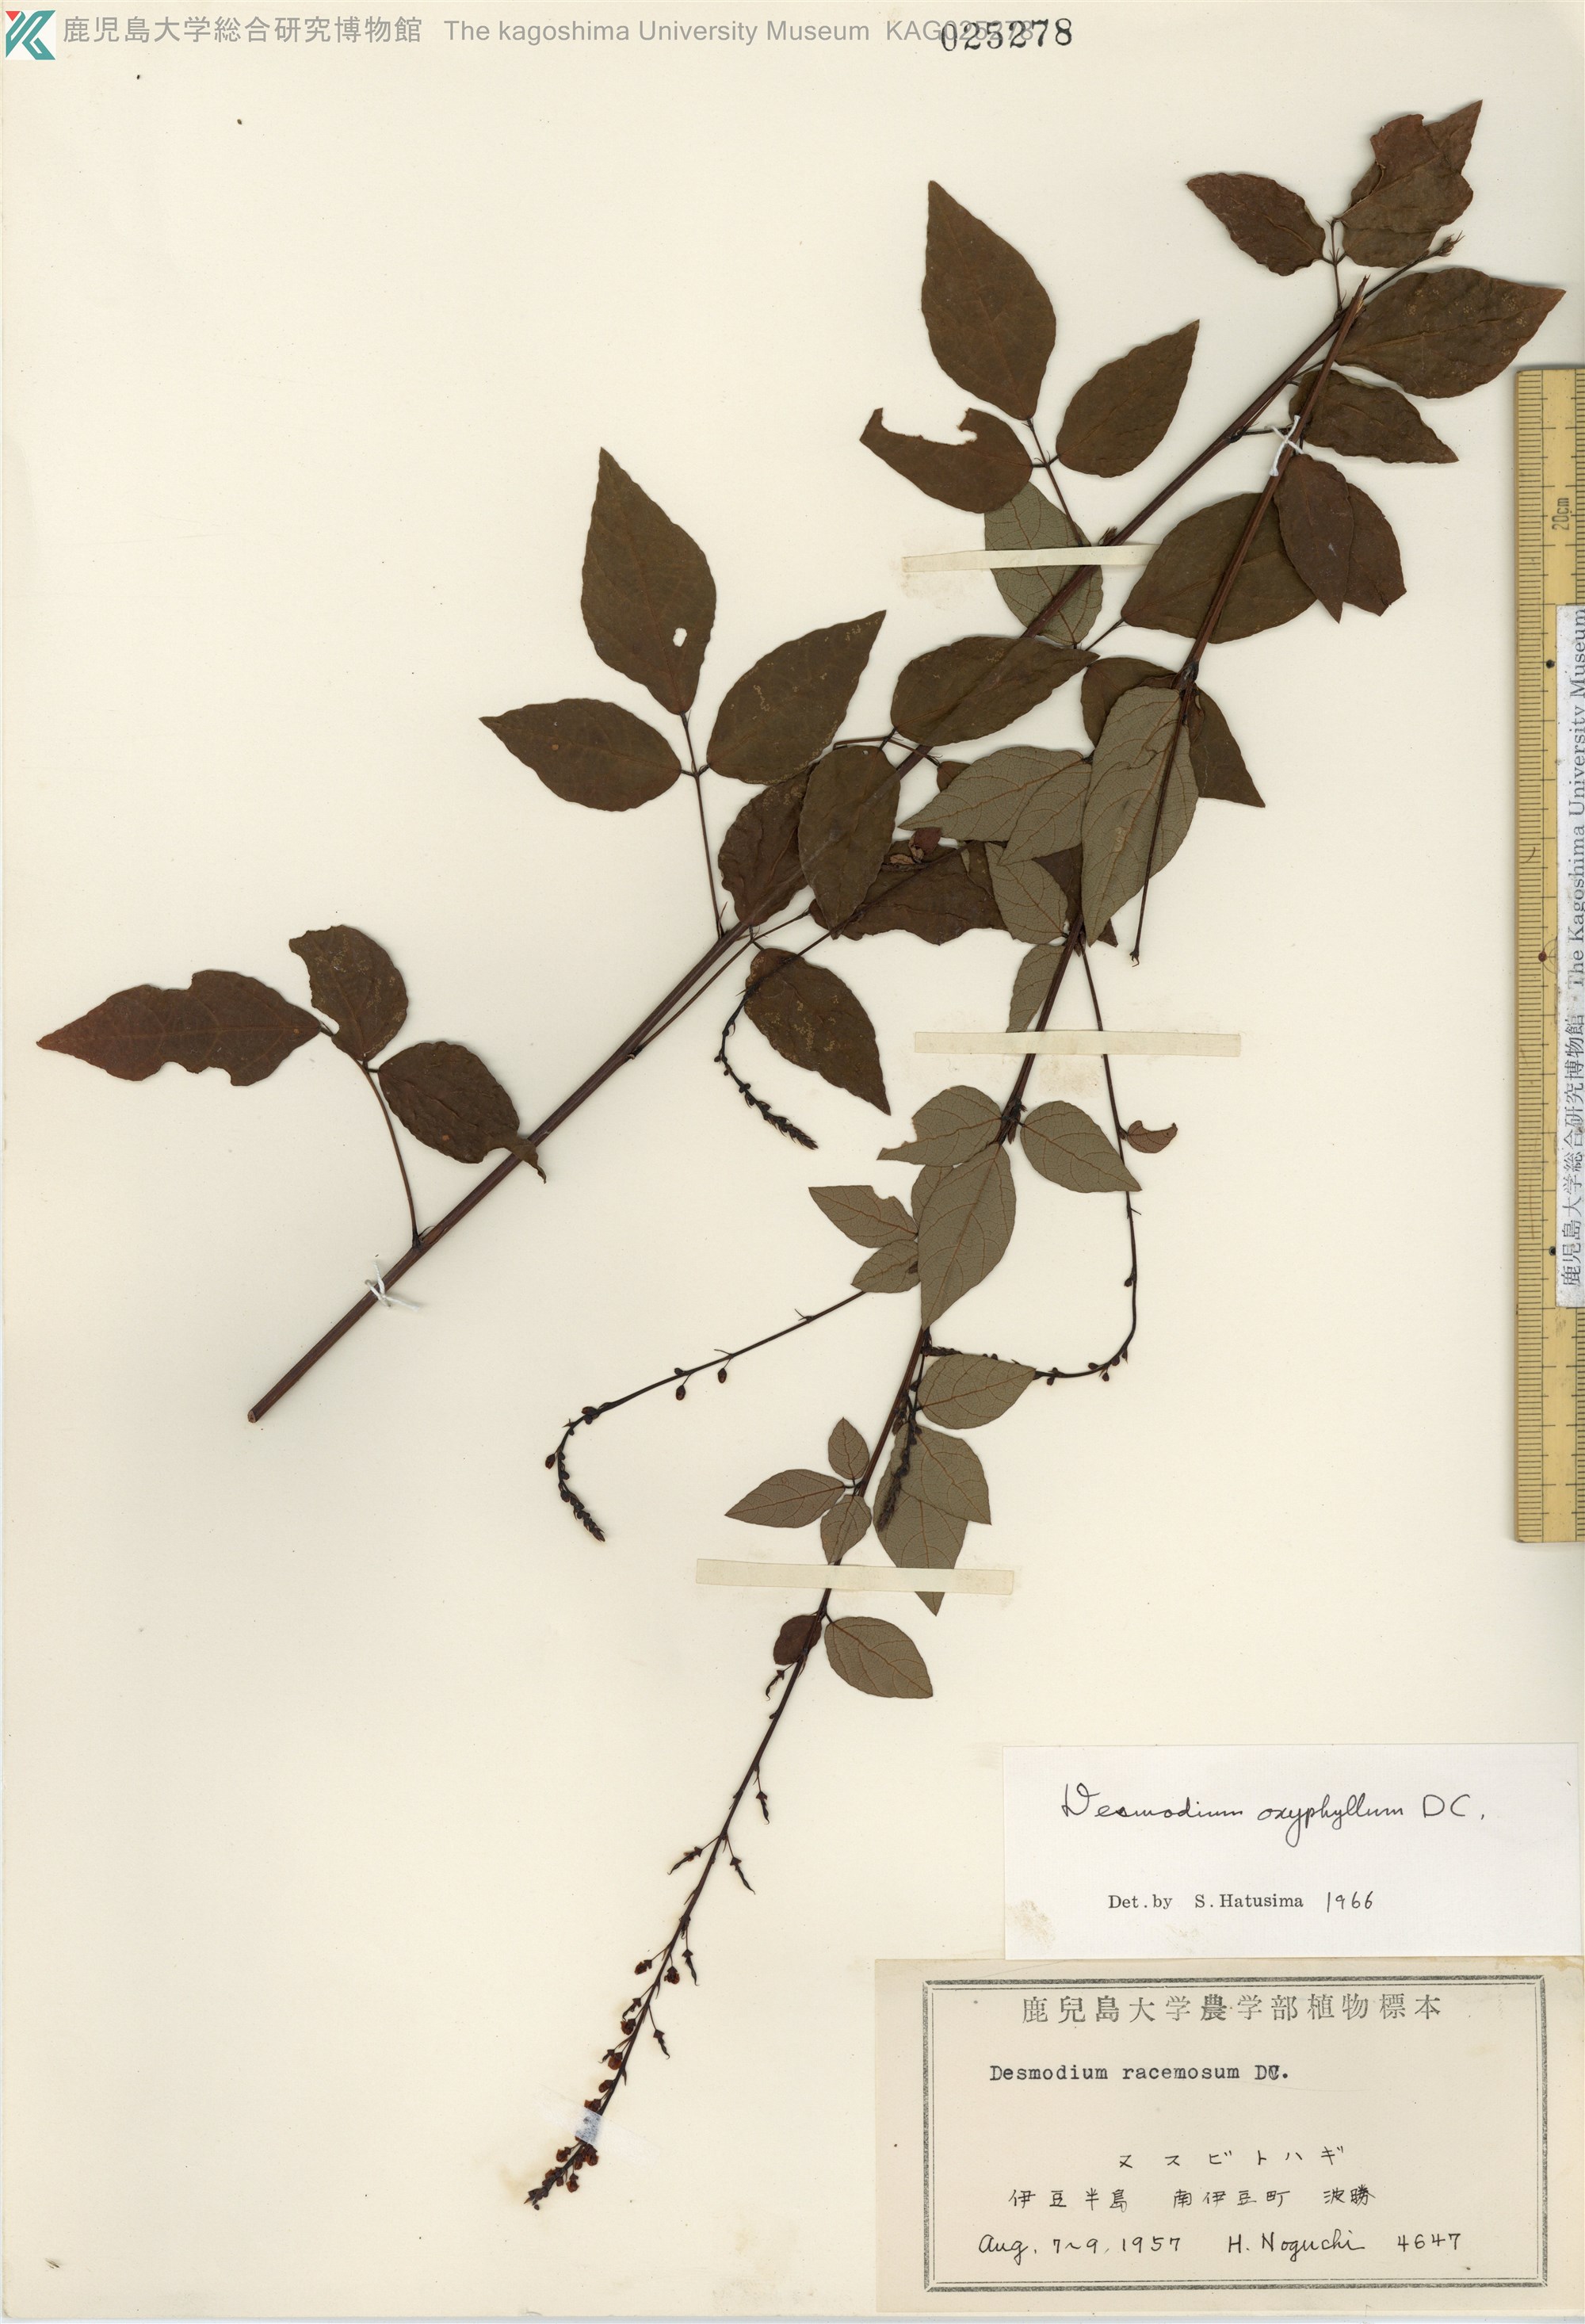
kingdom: Plantae
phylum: Tracheophyta
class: Magnoliopsida
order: Fabales
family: Fabaceae
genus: Hylodesmum
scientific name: Hylodesmum podocarpum
